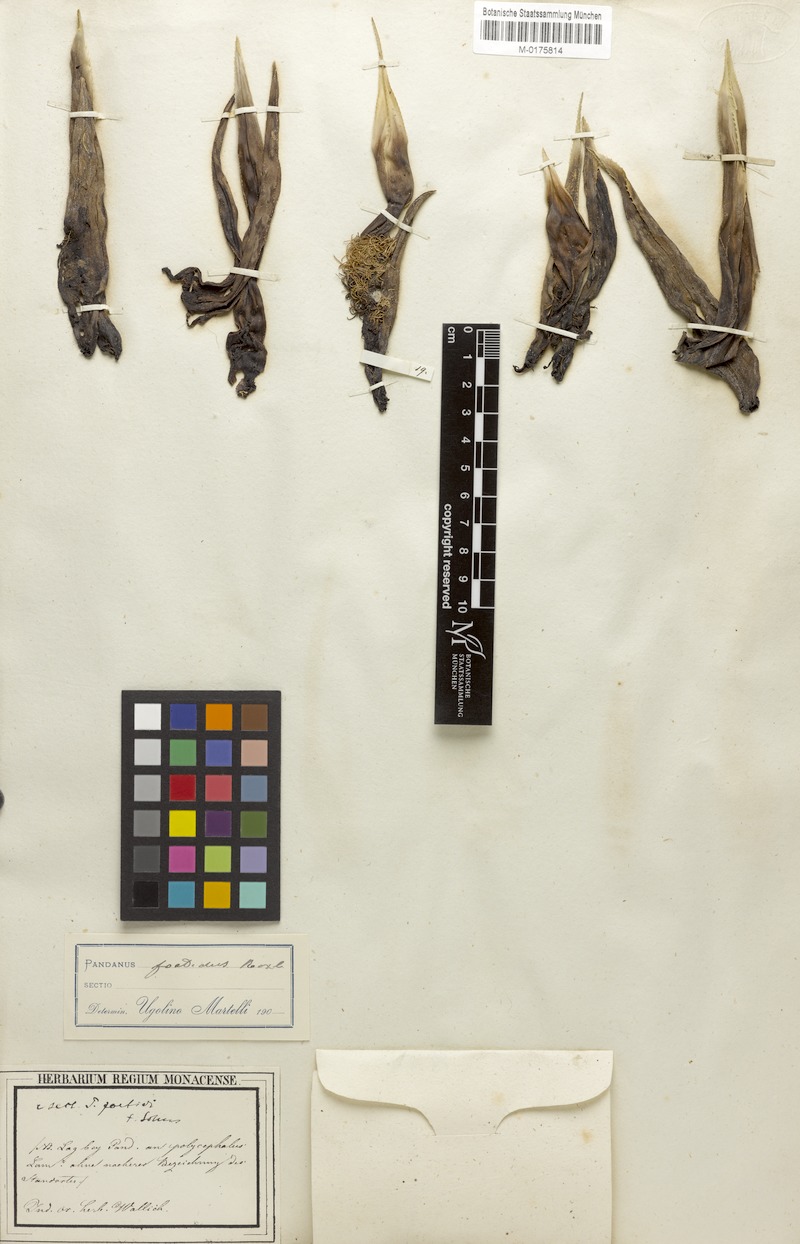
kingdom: Plantae
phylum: Tracheophyta
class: Liliopsida
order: Pandanales
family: Pandanaceae
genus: Benstonea
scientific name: Benstonea foetida
